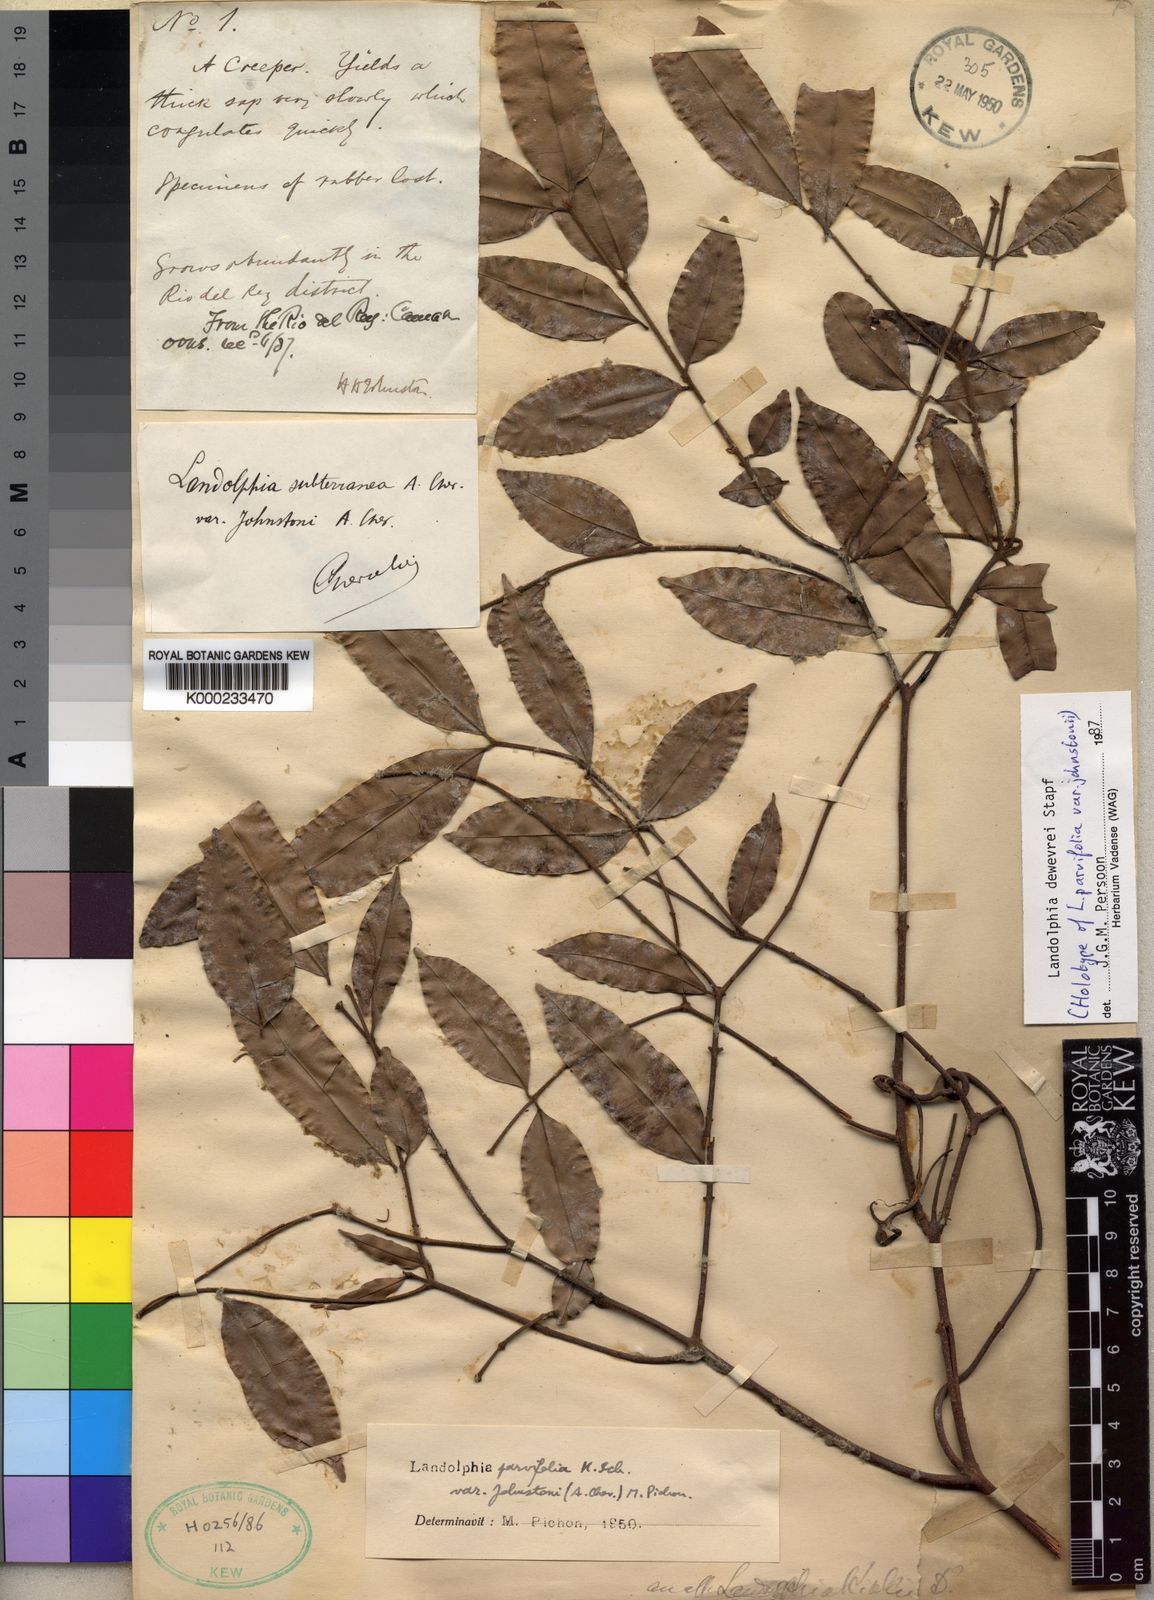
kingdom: Plantae
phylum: Tracheophyta
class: Magnoliopsida
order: Gentianales
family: Apocynaceae
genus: Landolphia
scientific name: Landolphia dewevrei
